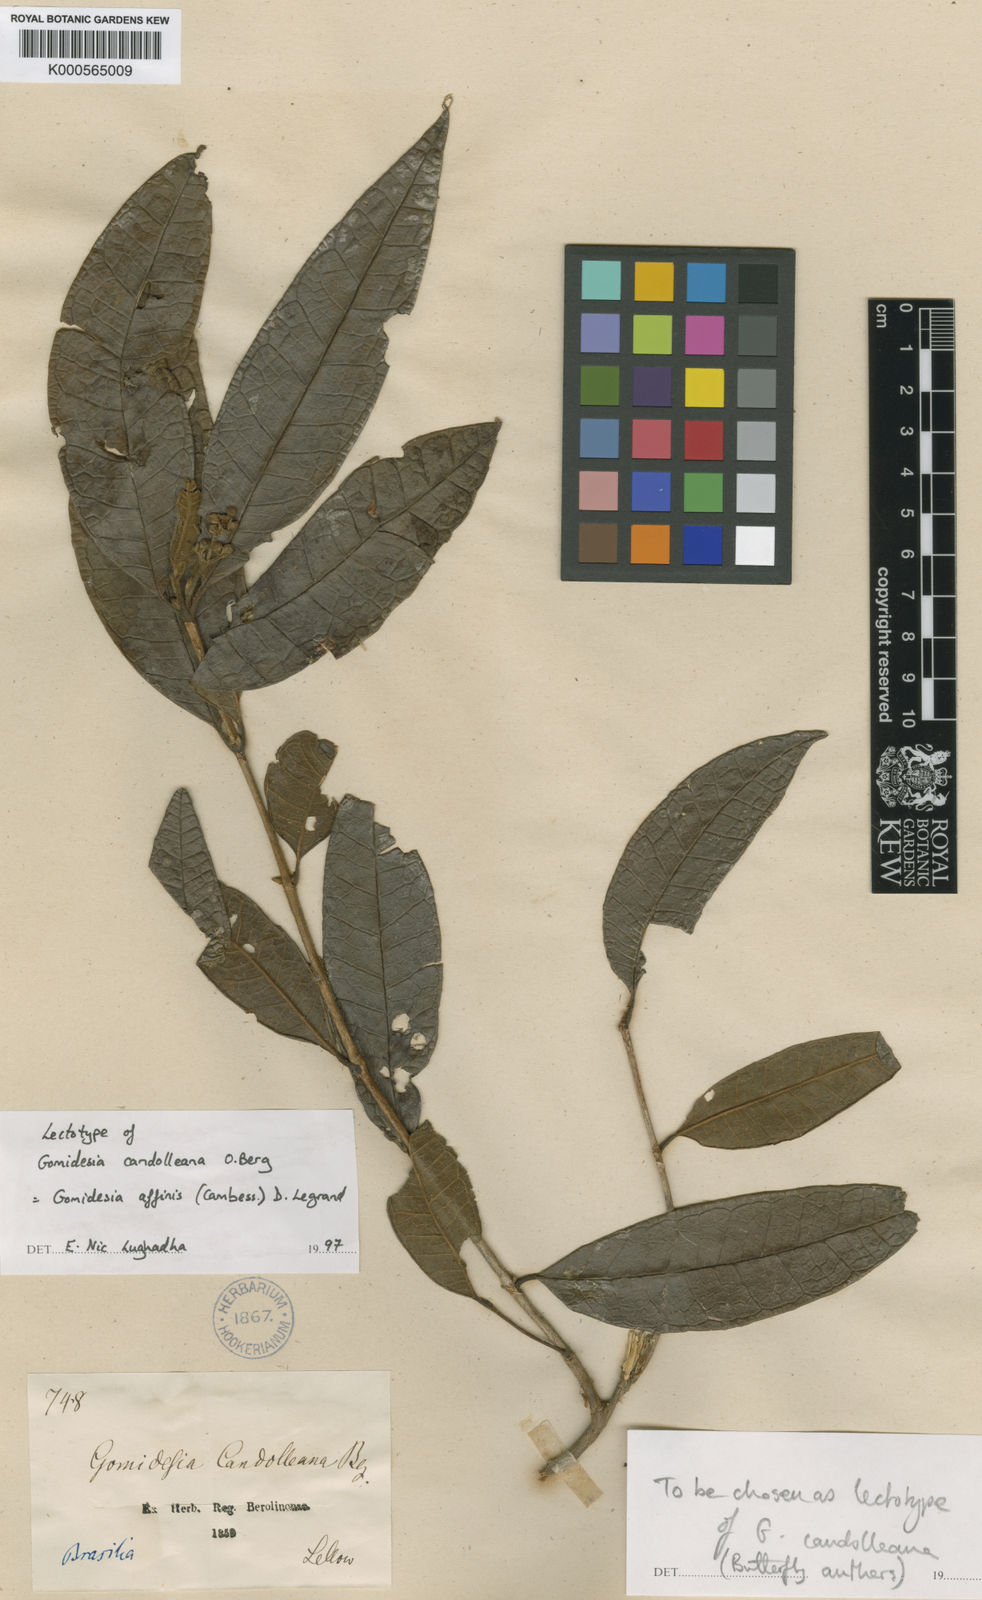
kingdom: Plantae
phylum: Tracheophyta
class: Magnoliopsida
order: Myrtales
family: Myrtaceae
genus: Myrcia
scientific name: Myrcia hebepetala
